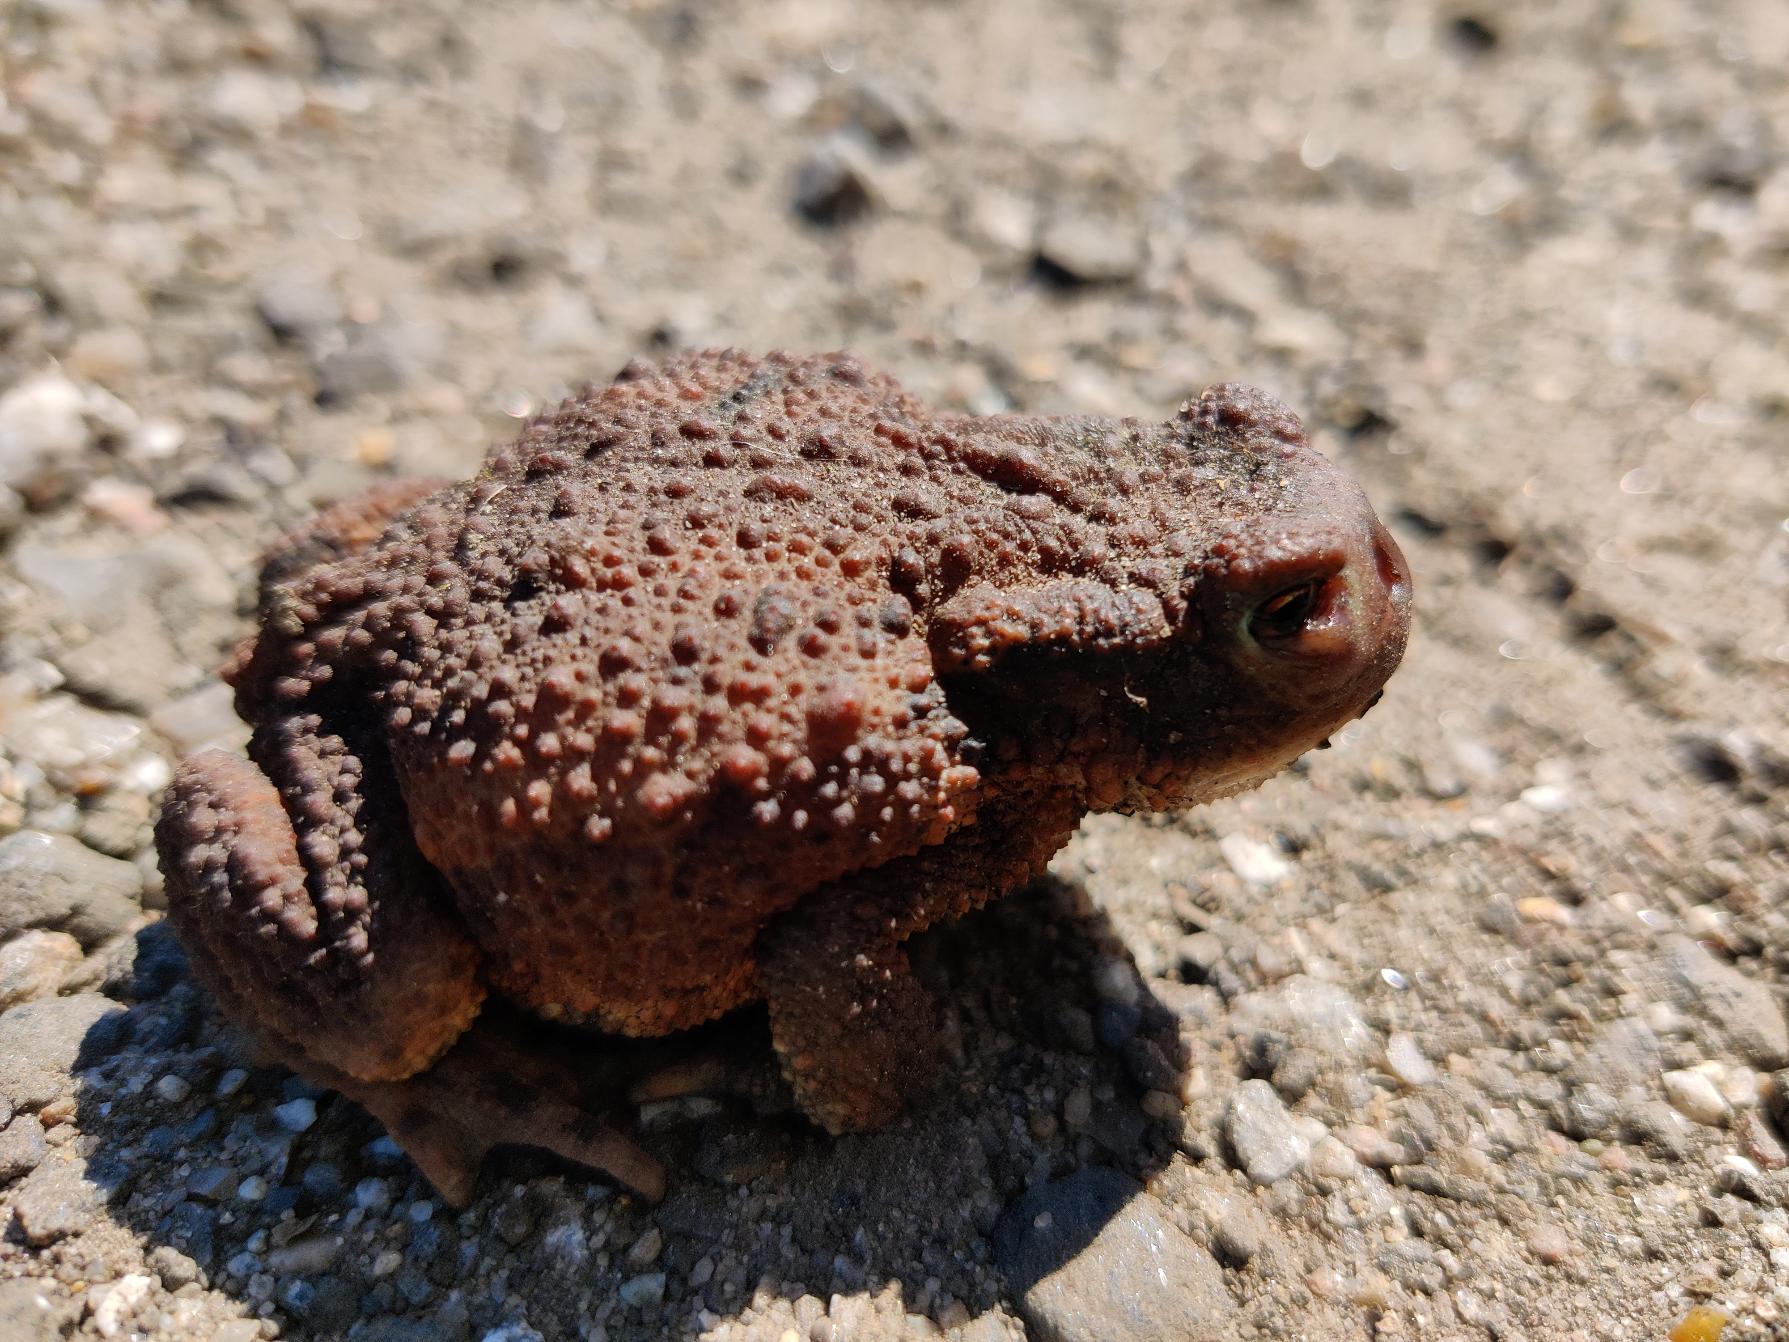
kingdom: Animalia
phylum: Chordata
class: Amphibia
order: Anura
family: Bufonidae
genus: Bufo
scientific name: Bufo bufo
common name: Skrubtudse
